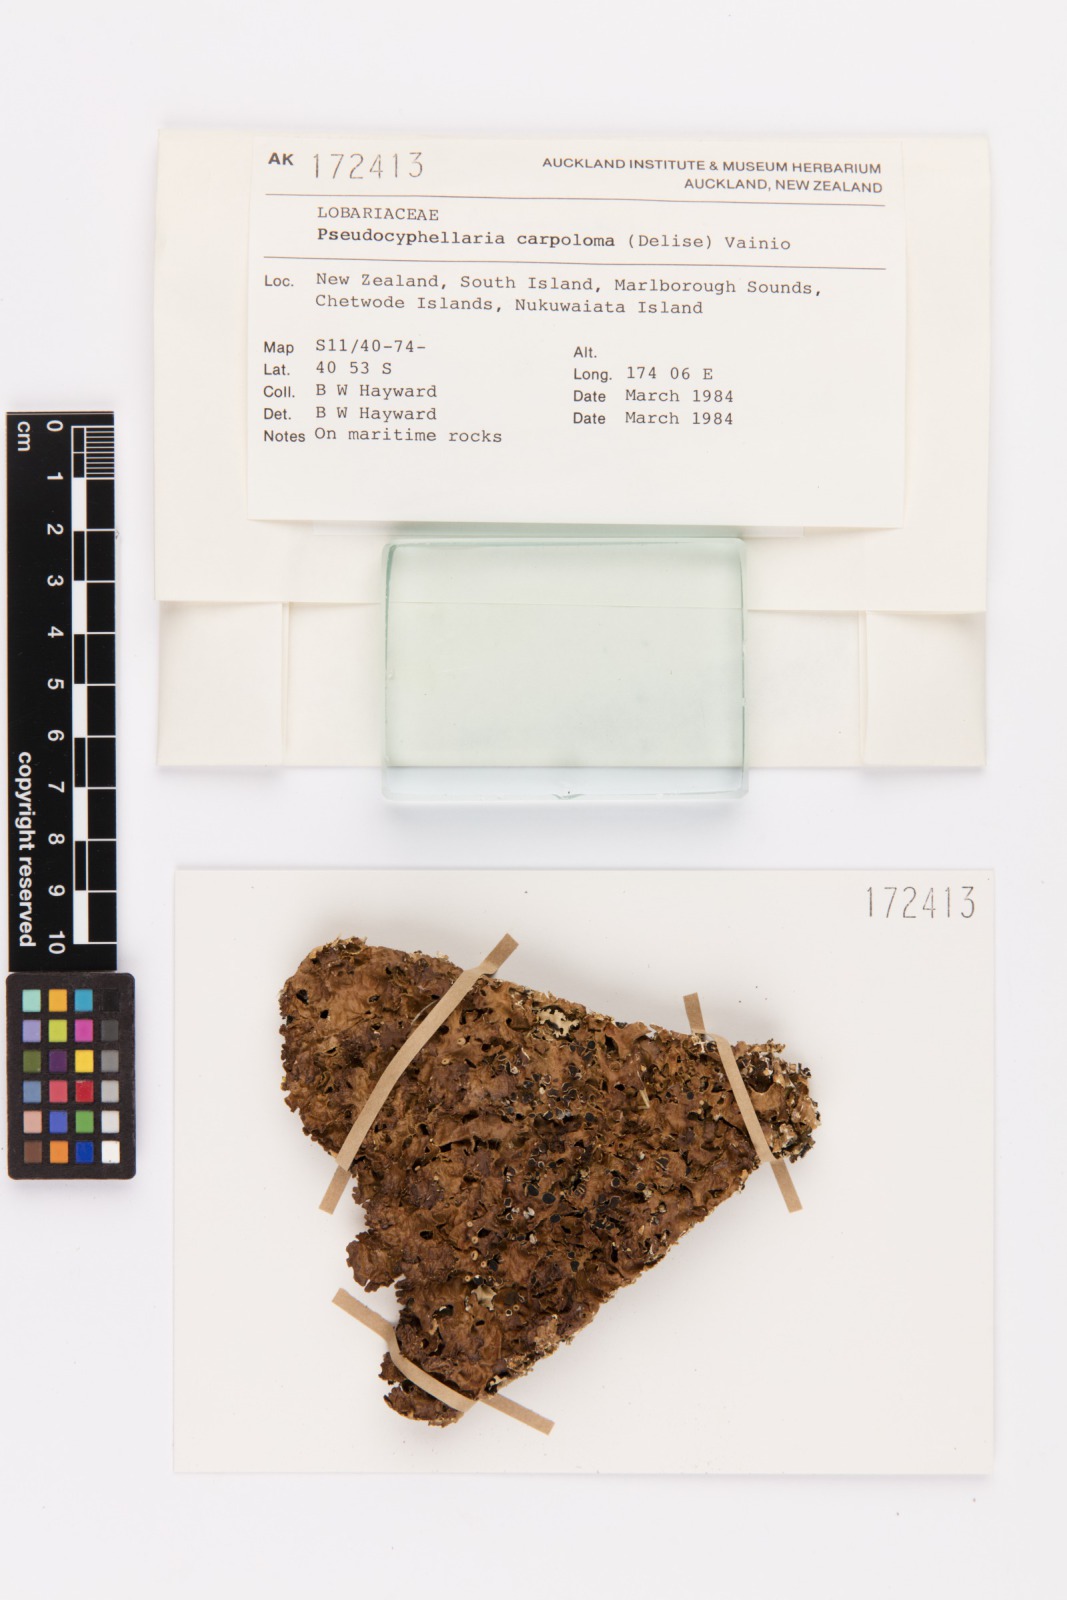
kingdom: Fungi
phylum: Ascomycota
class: Lecanoromycetes
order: Peltigerales
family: Lobariaceae
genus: Pseudocyphellaria
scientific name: Pseudocyphellaria carpoloma
